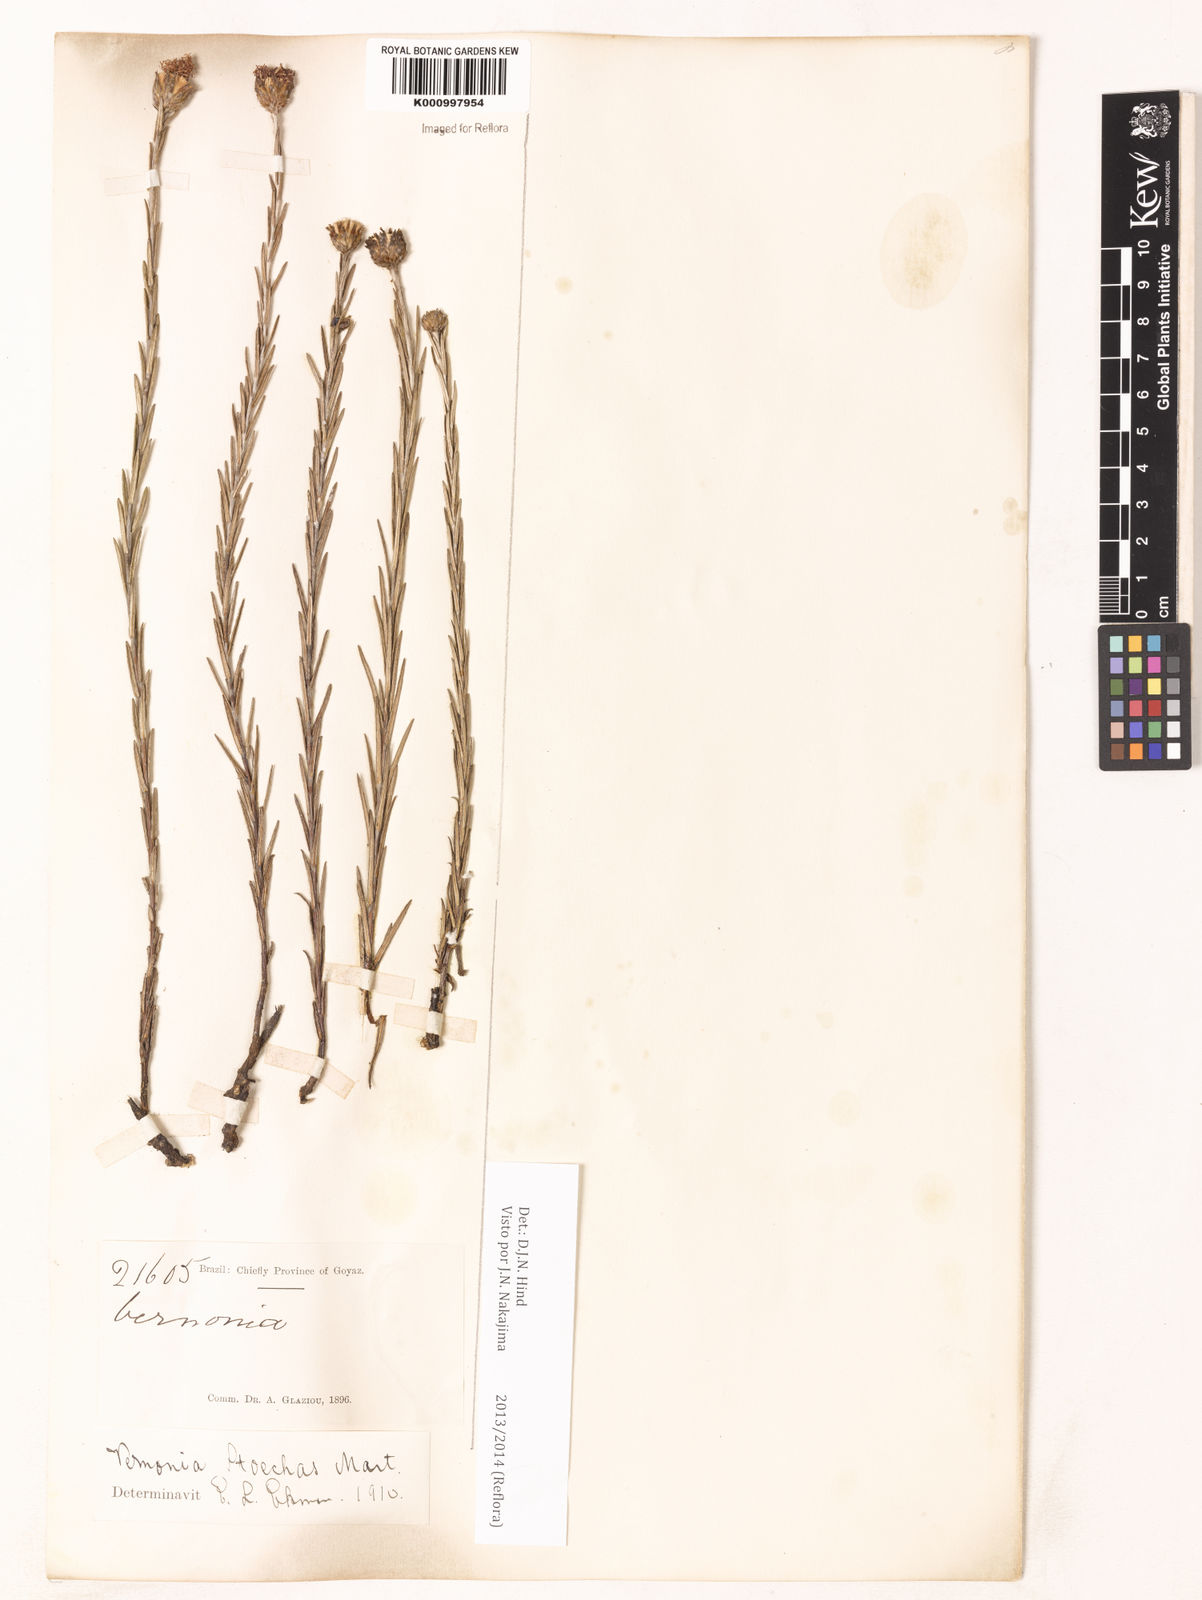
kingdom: Plantae
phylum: Tracheophyta
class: Magnoliopsida
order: Asterales
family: Asteraceae
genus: Lessingianthus
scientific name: Lessingianthus stoechas
